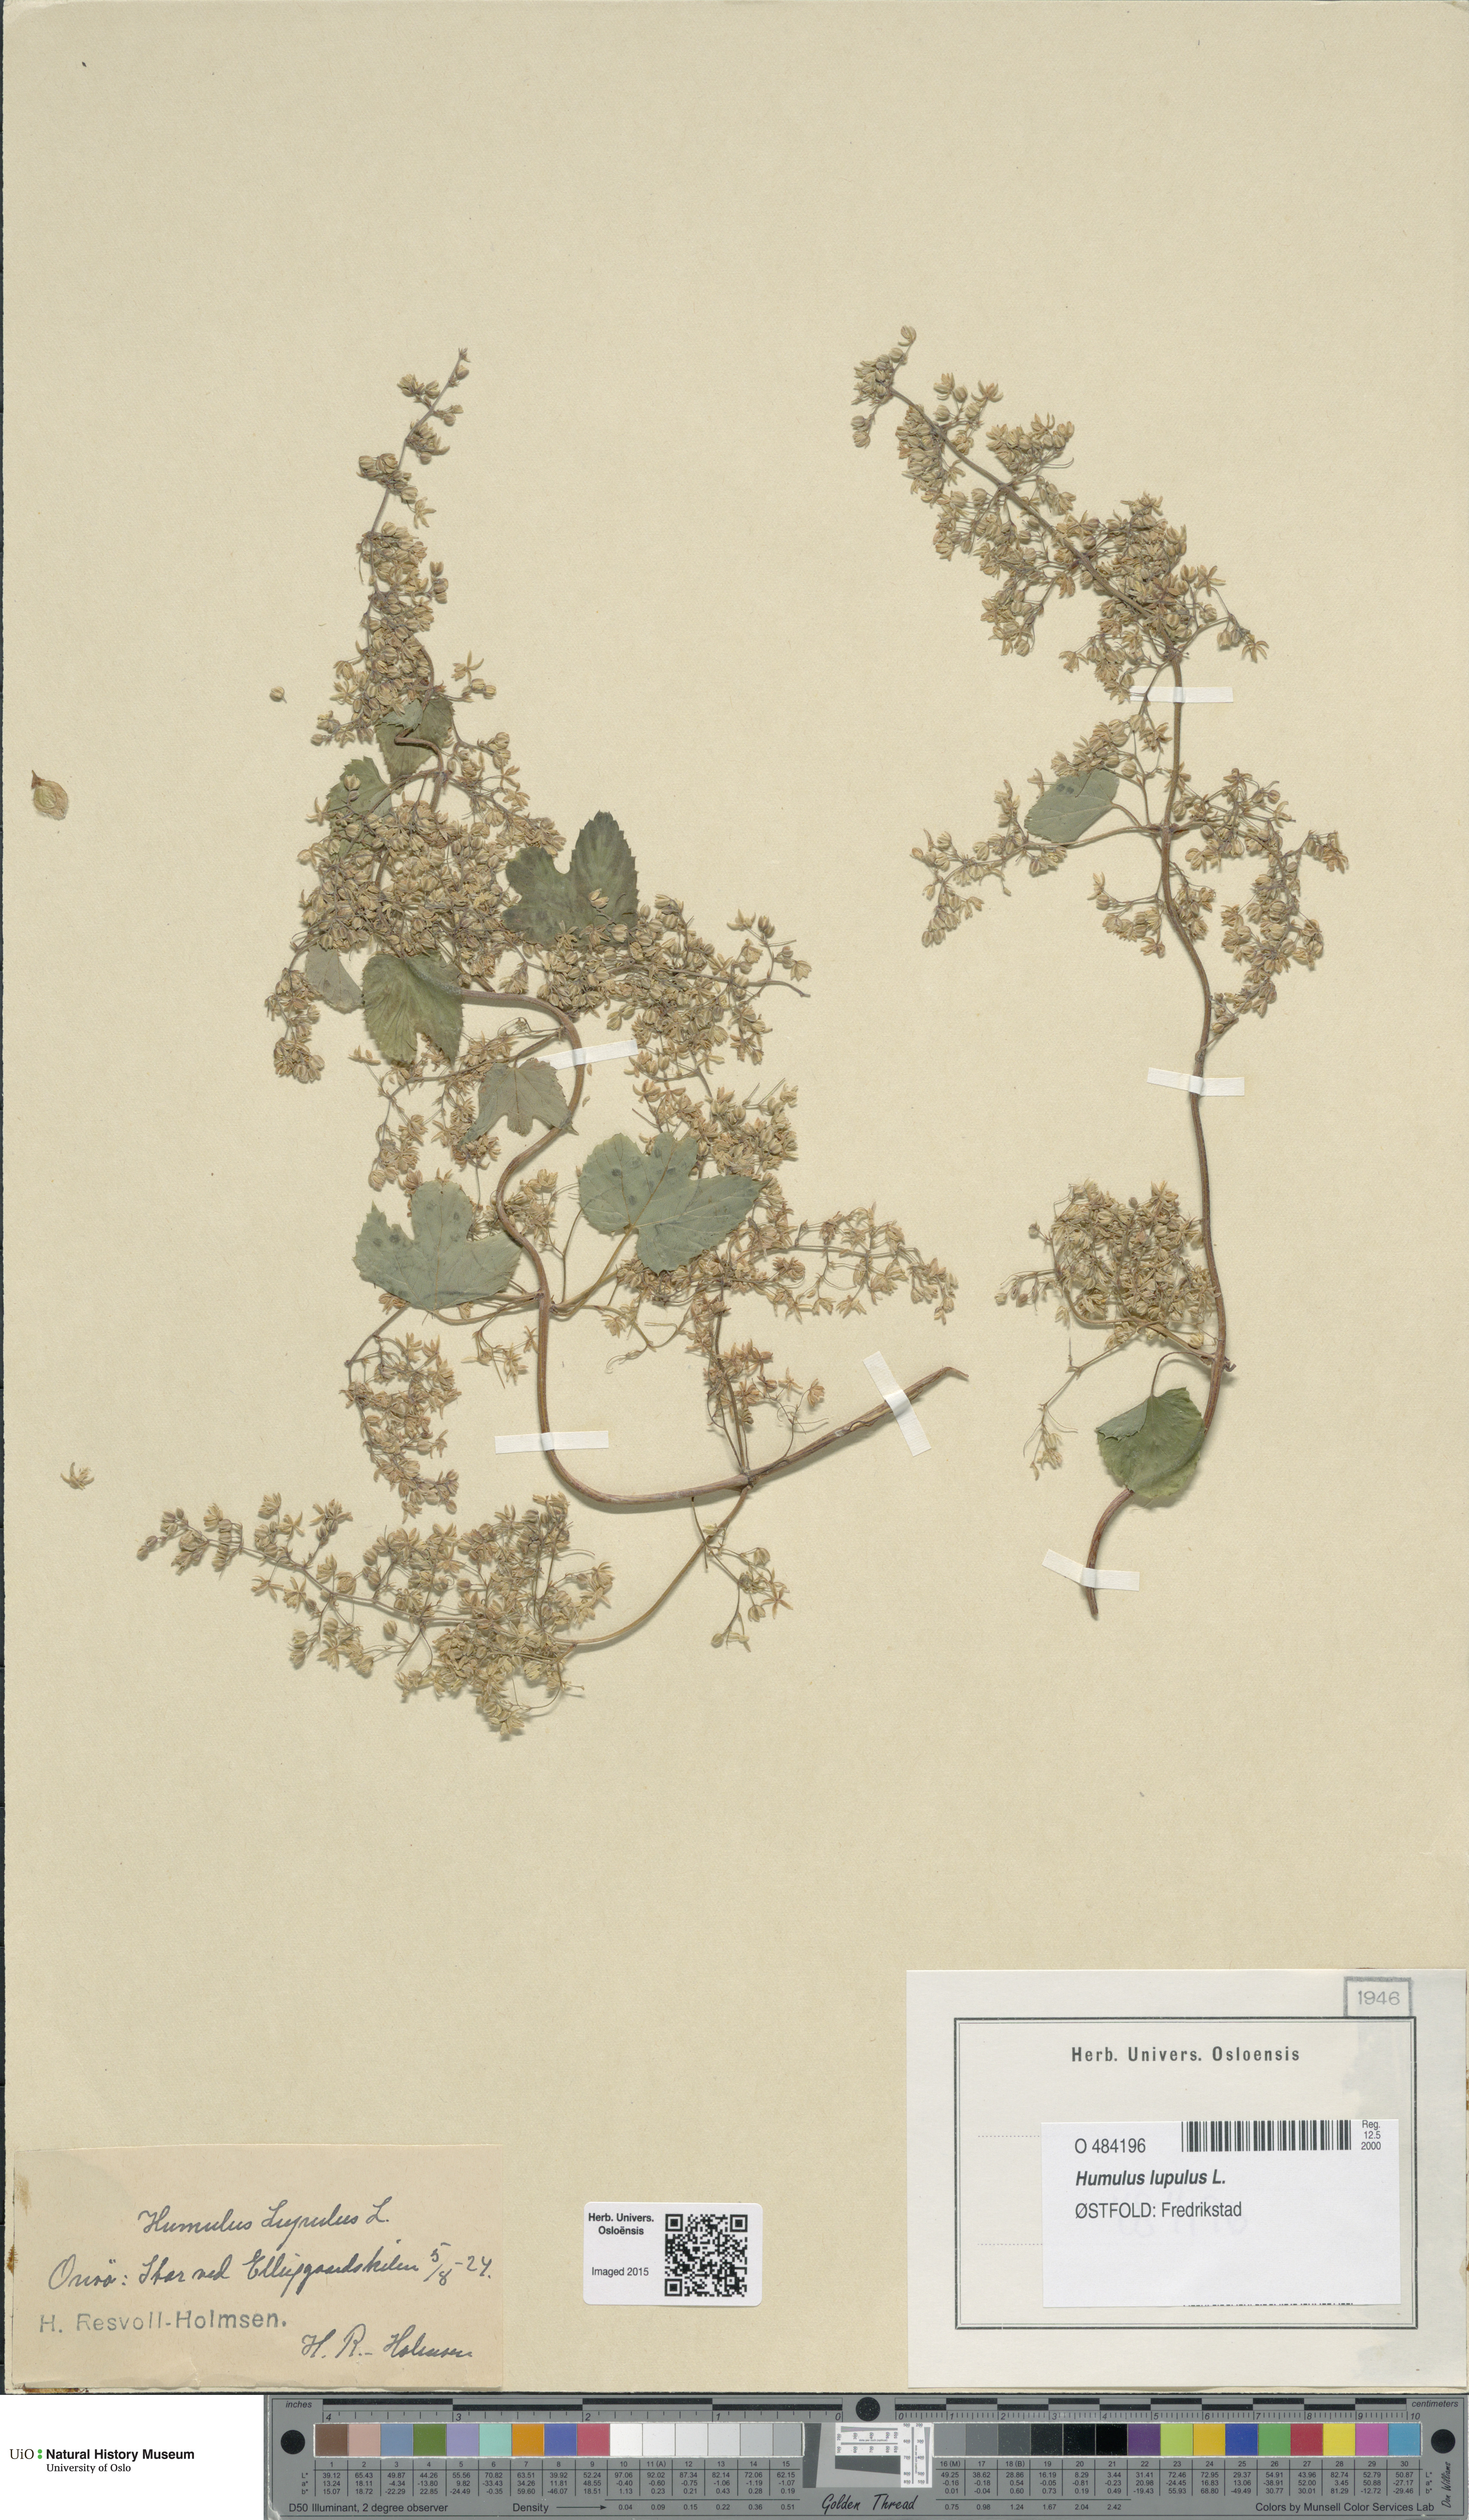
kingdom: Plantae
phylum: Tracheophyta
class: Magnoliopsida
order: Rosales
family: Cannabaceae
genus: Humulus
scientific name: Humulus lupulus
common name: Hop
